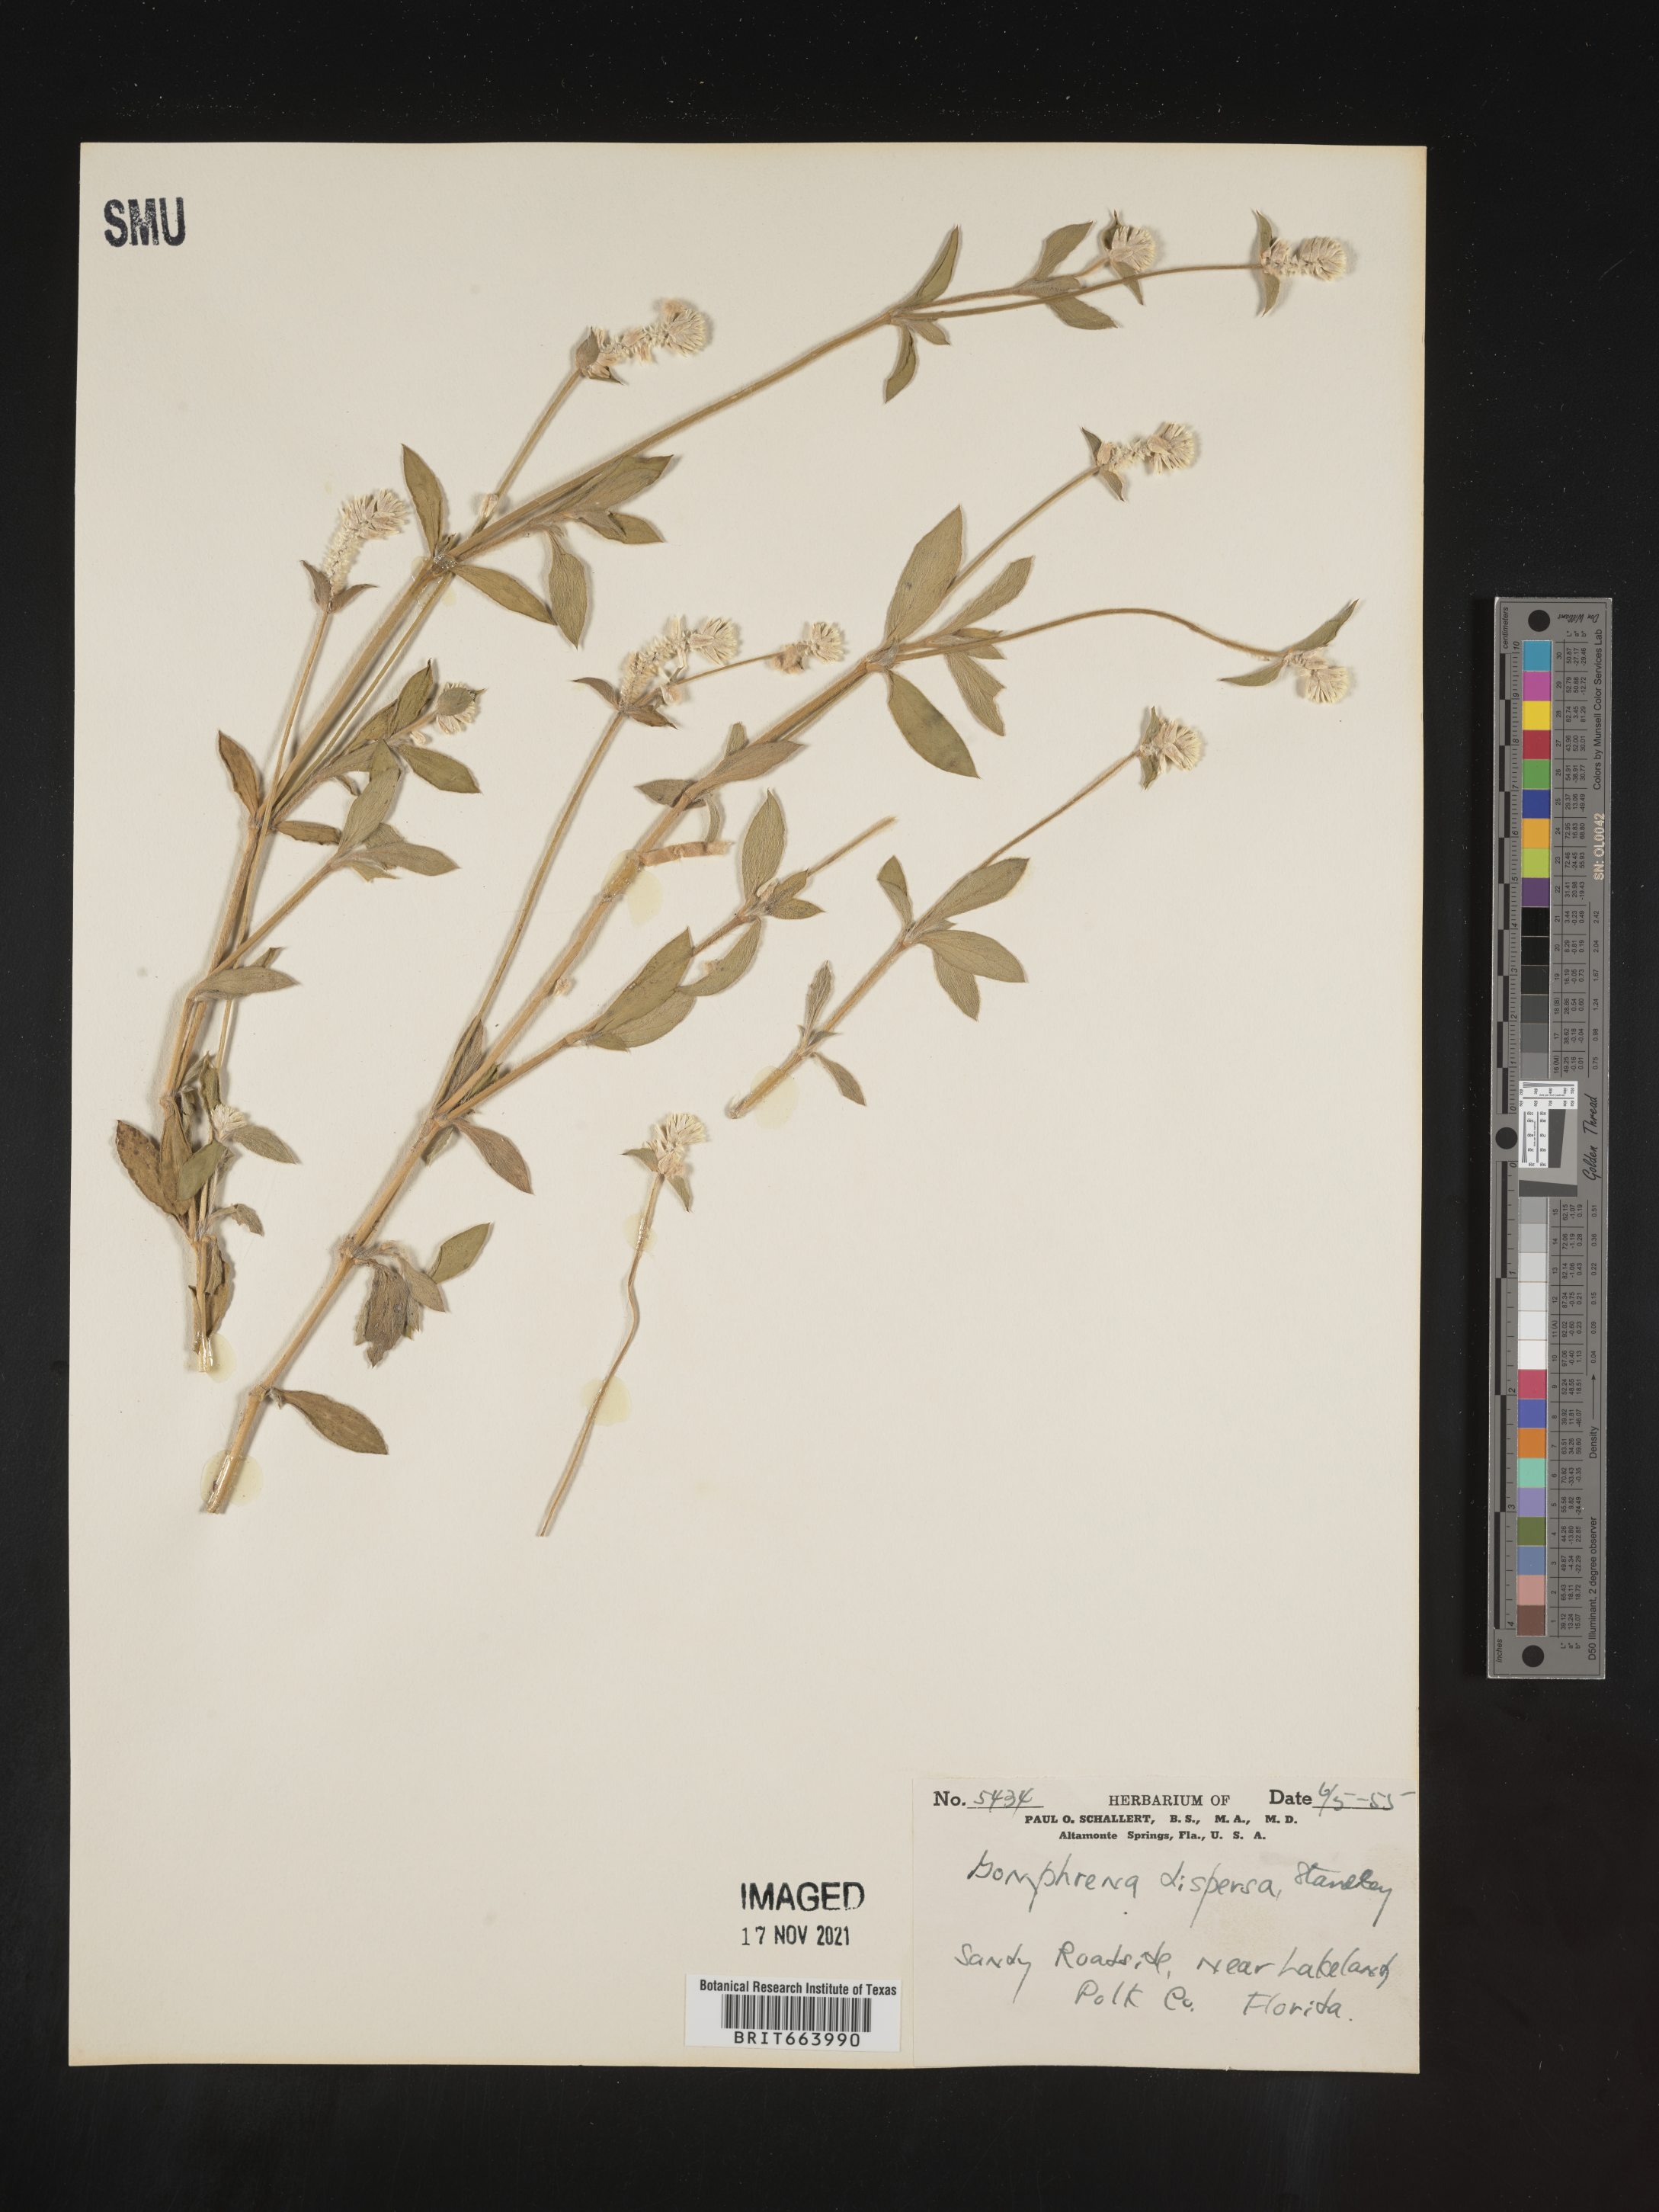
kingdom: Plantae
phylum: Tracheophyta
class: Magnoliopsida
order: Caryophyllales
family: Amaranthaceae
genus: Gomphrena
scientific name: Gomphrena
